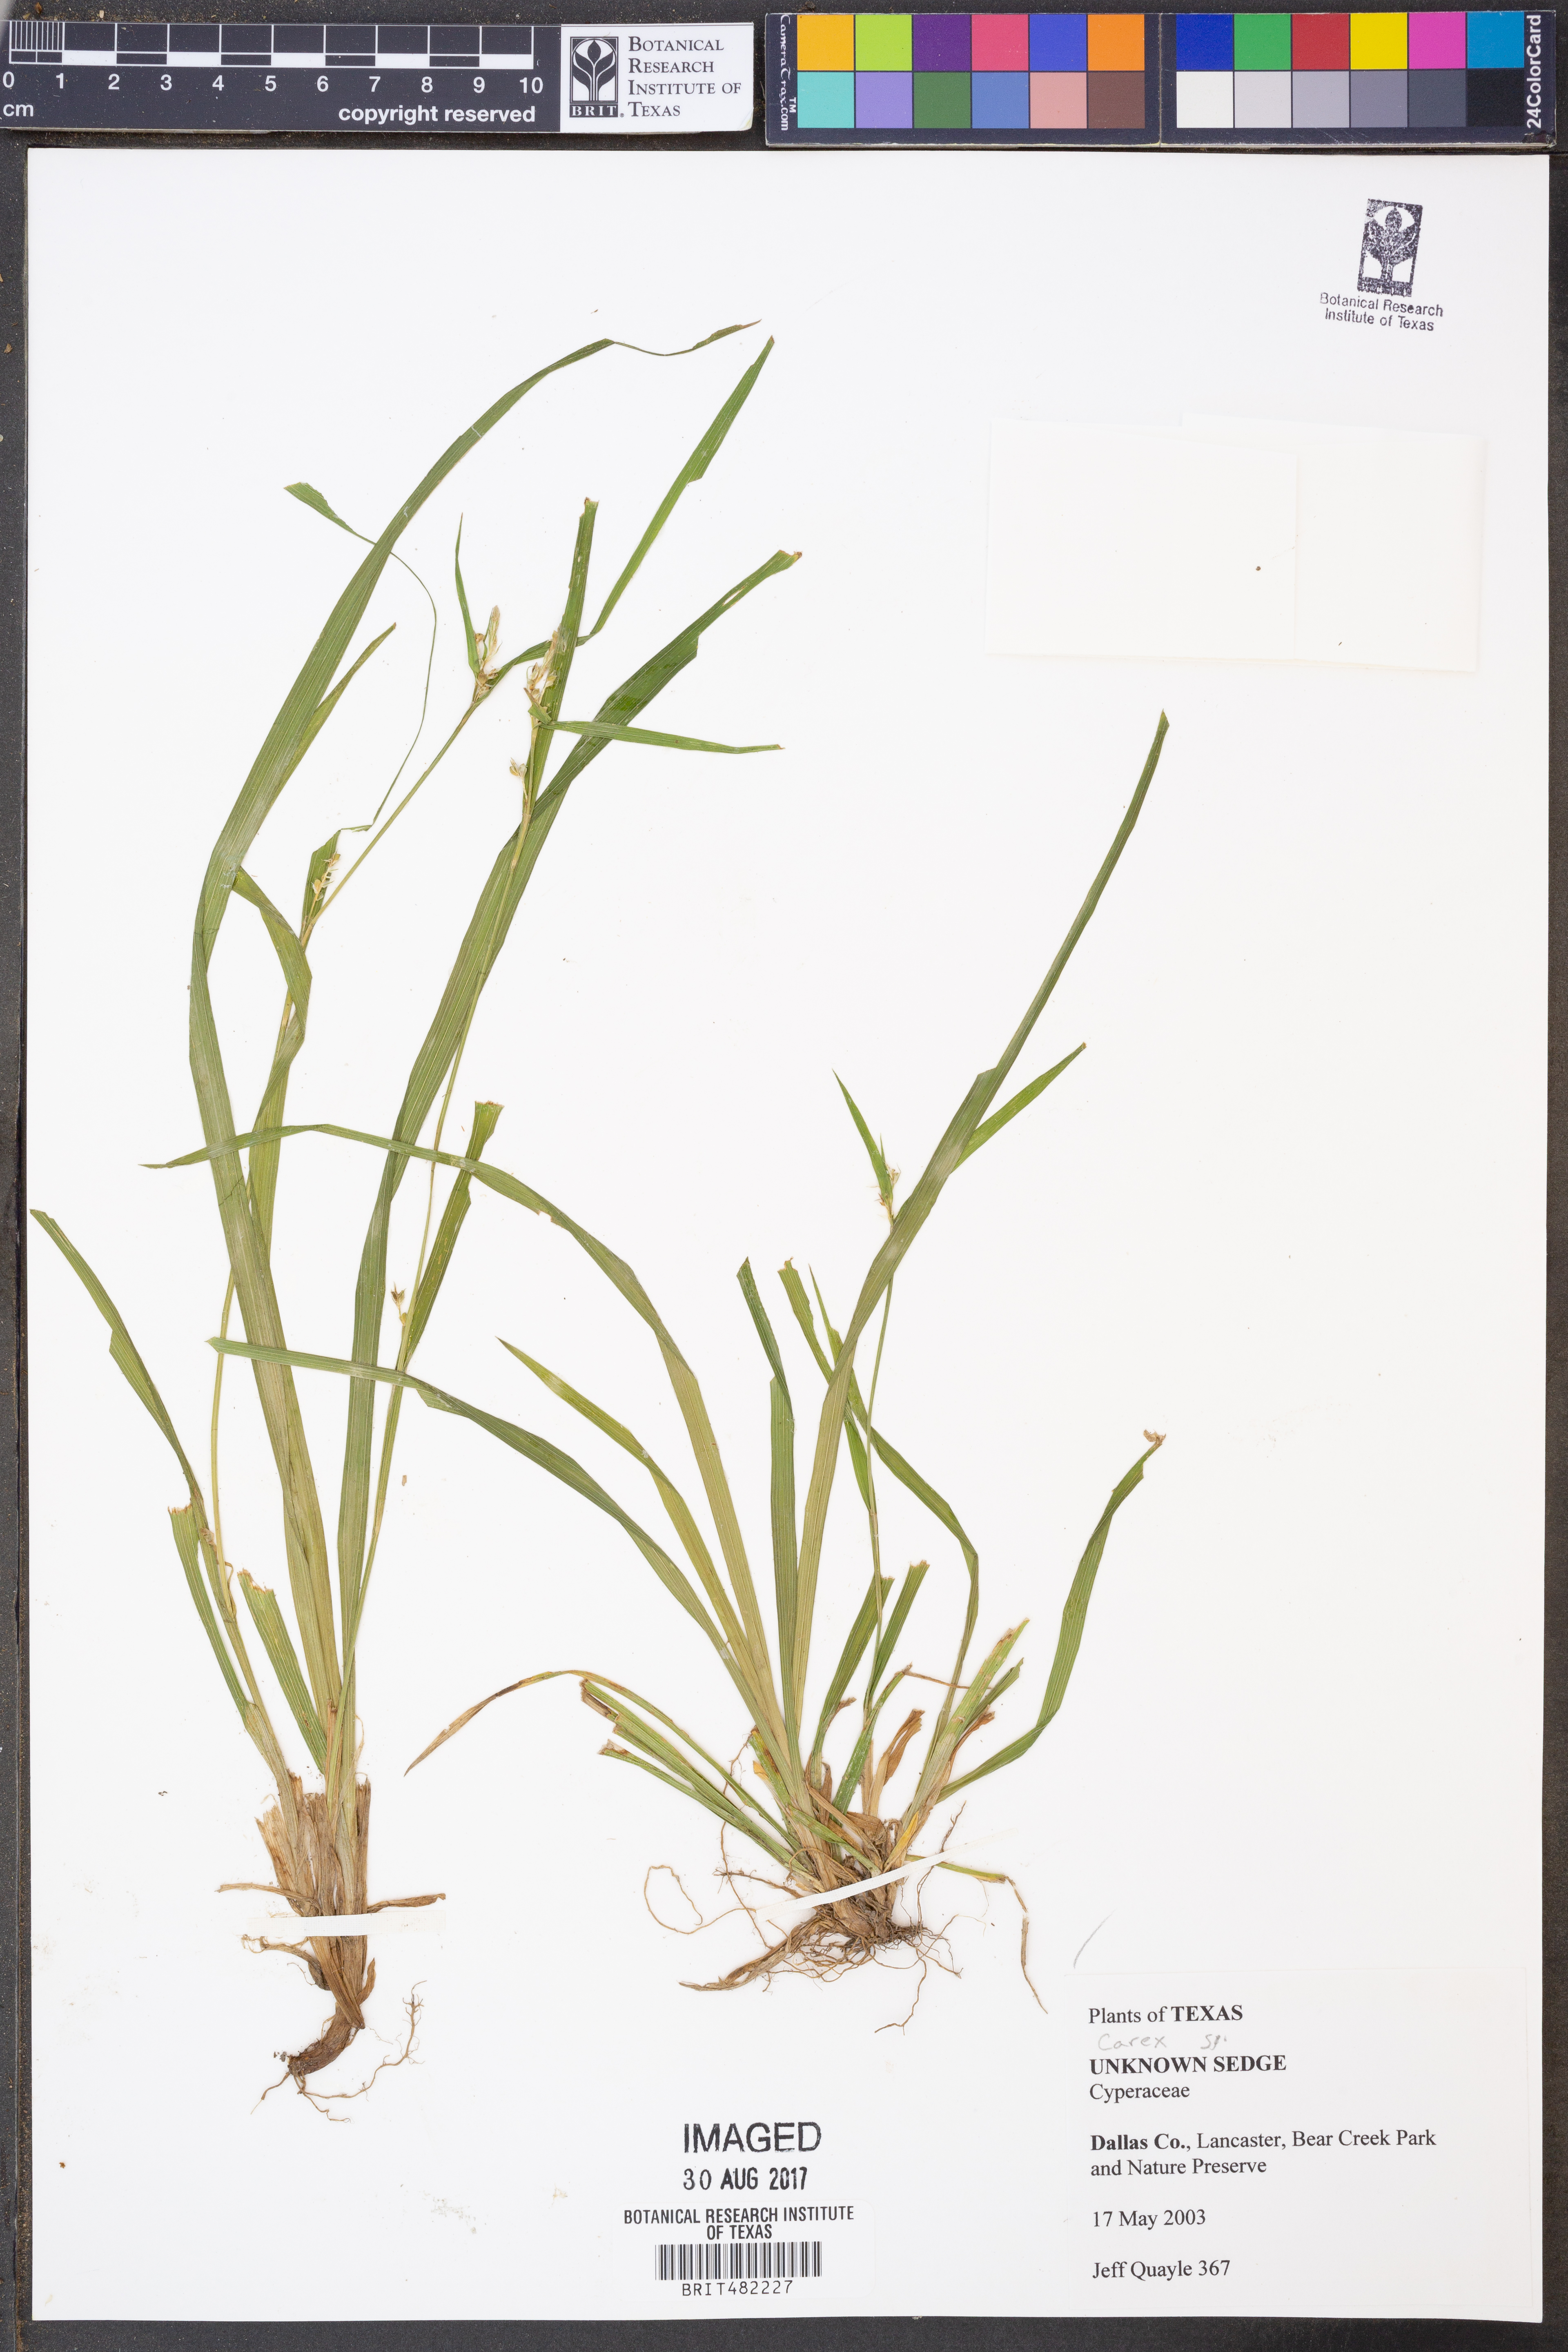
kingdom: Plantae
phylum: Tracheophyta
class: Liliopsida
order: Poales
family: Cyperaceae
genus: Carex
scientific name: Carex
